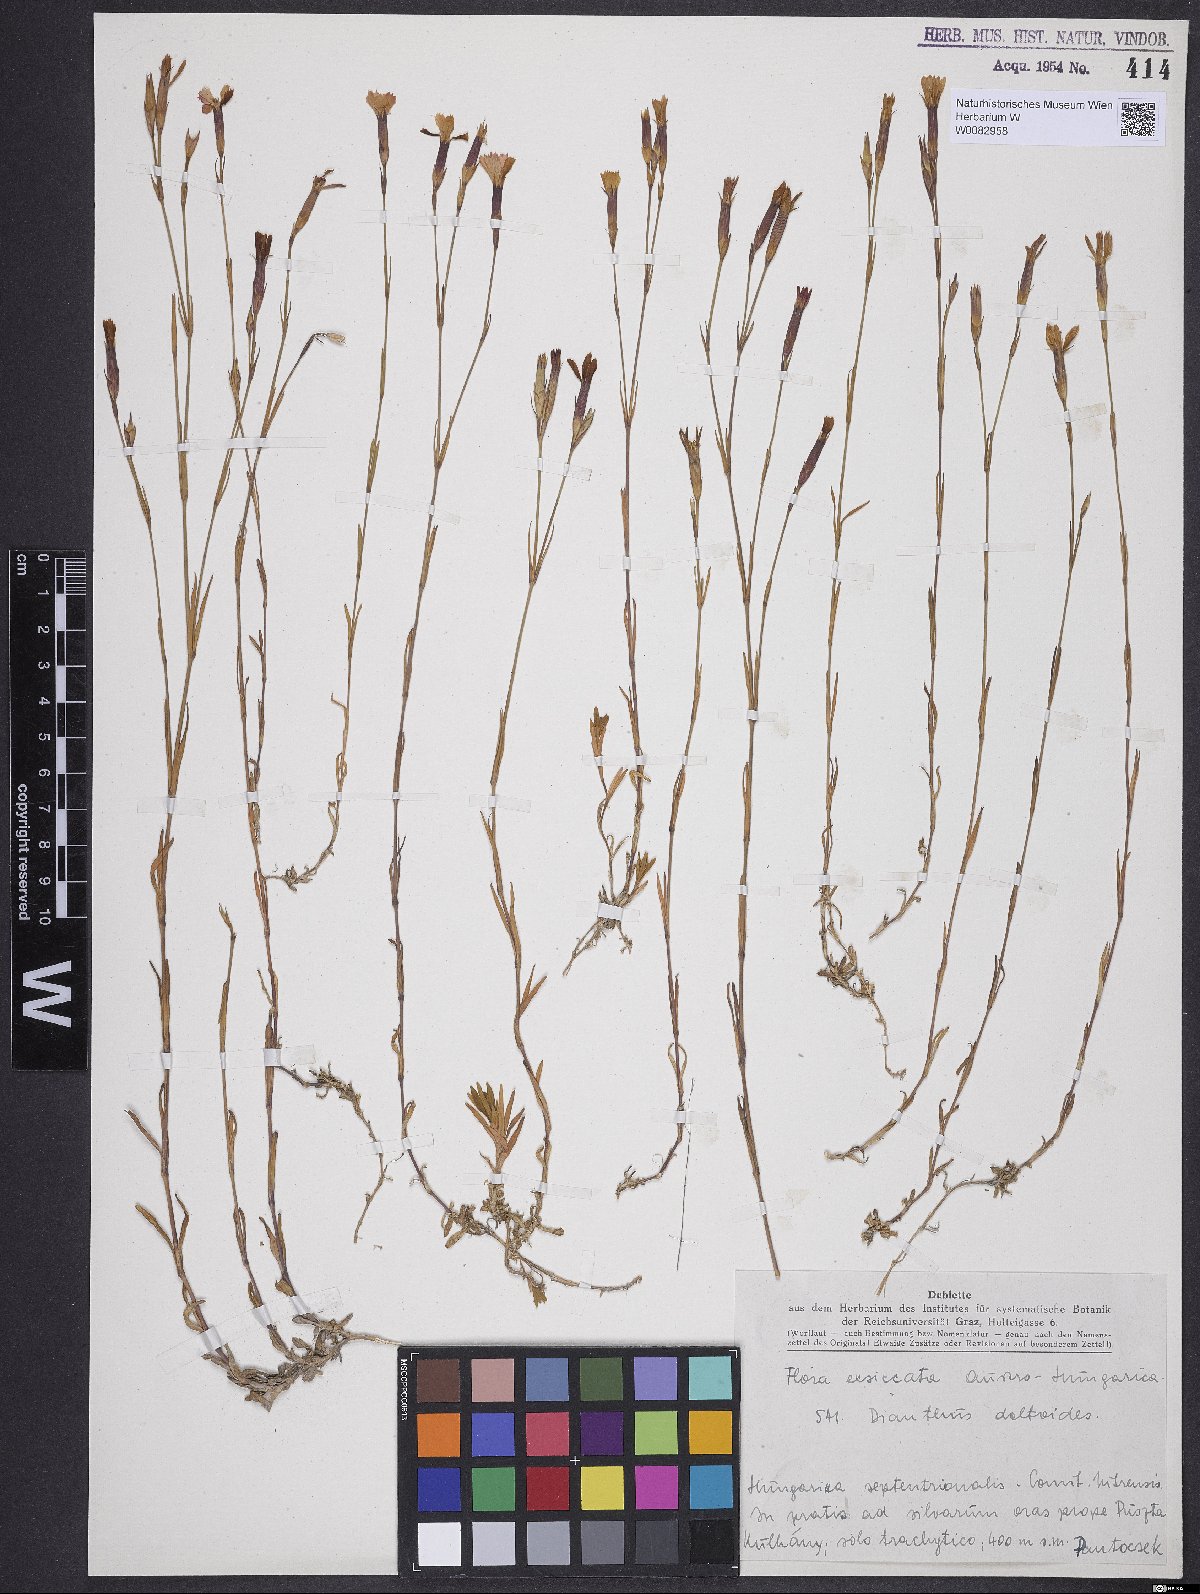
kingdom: Plantae
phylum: Tracheophyta
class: Magnoliopsida
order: Caryophyllales
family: Caryophyllaceae
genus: Dianthus
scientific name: Dianthus deltoides
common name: Maiden pink
